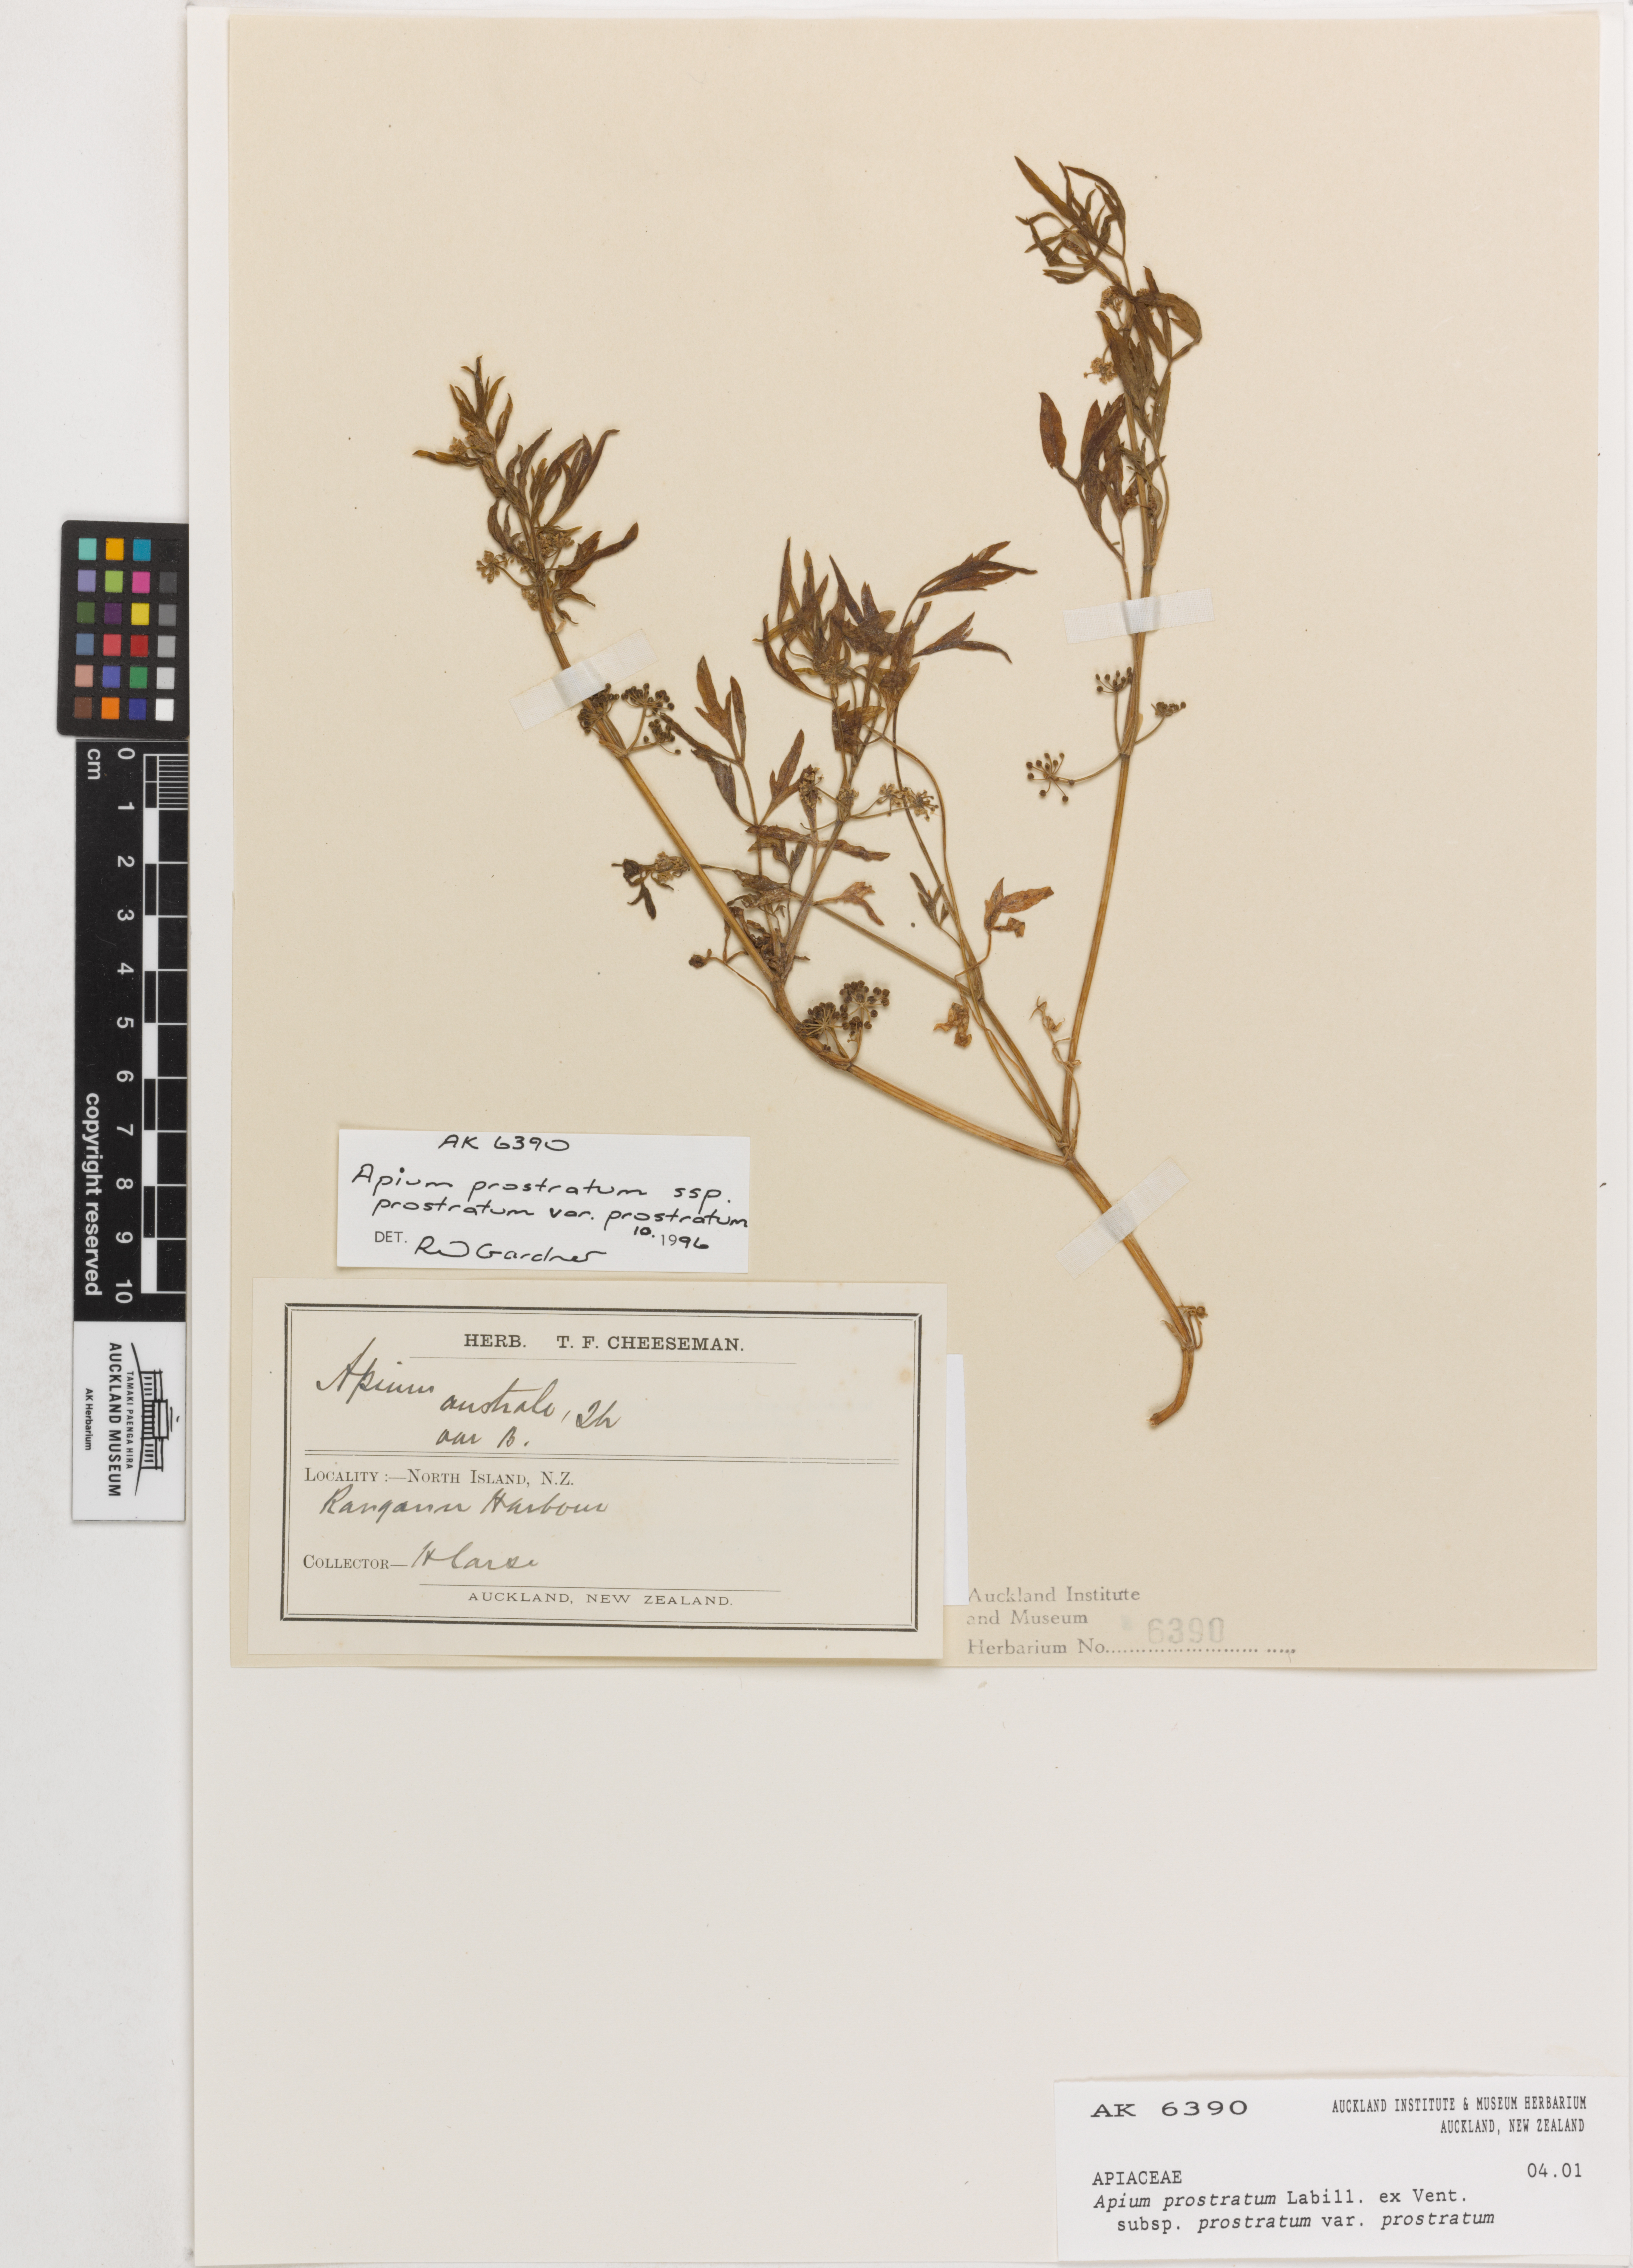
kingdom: Plantae
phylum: Tracheophyta
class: Magnoliopsida
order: Apiales
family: Apiaceae
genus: Apium
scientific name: Apium prostratum
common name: Prostrate marshwort
